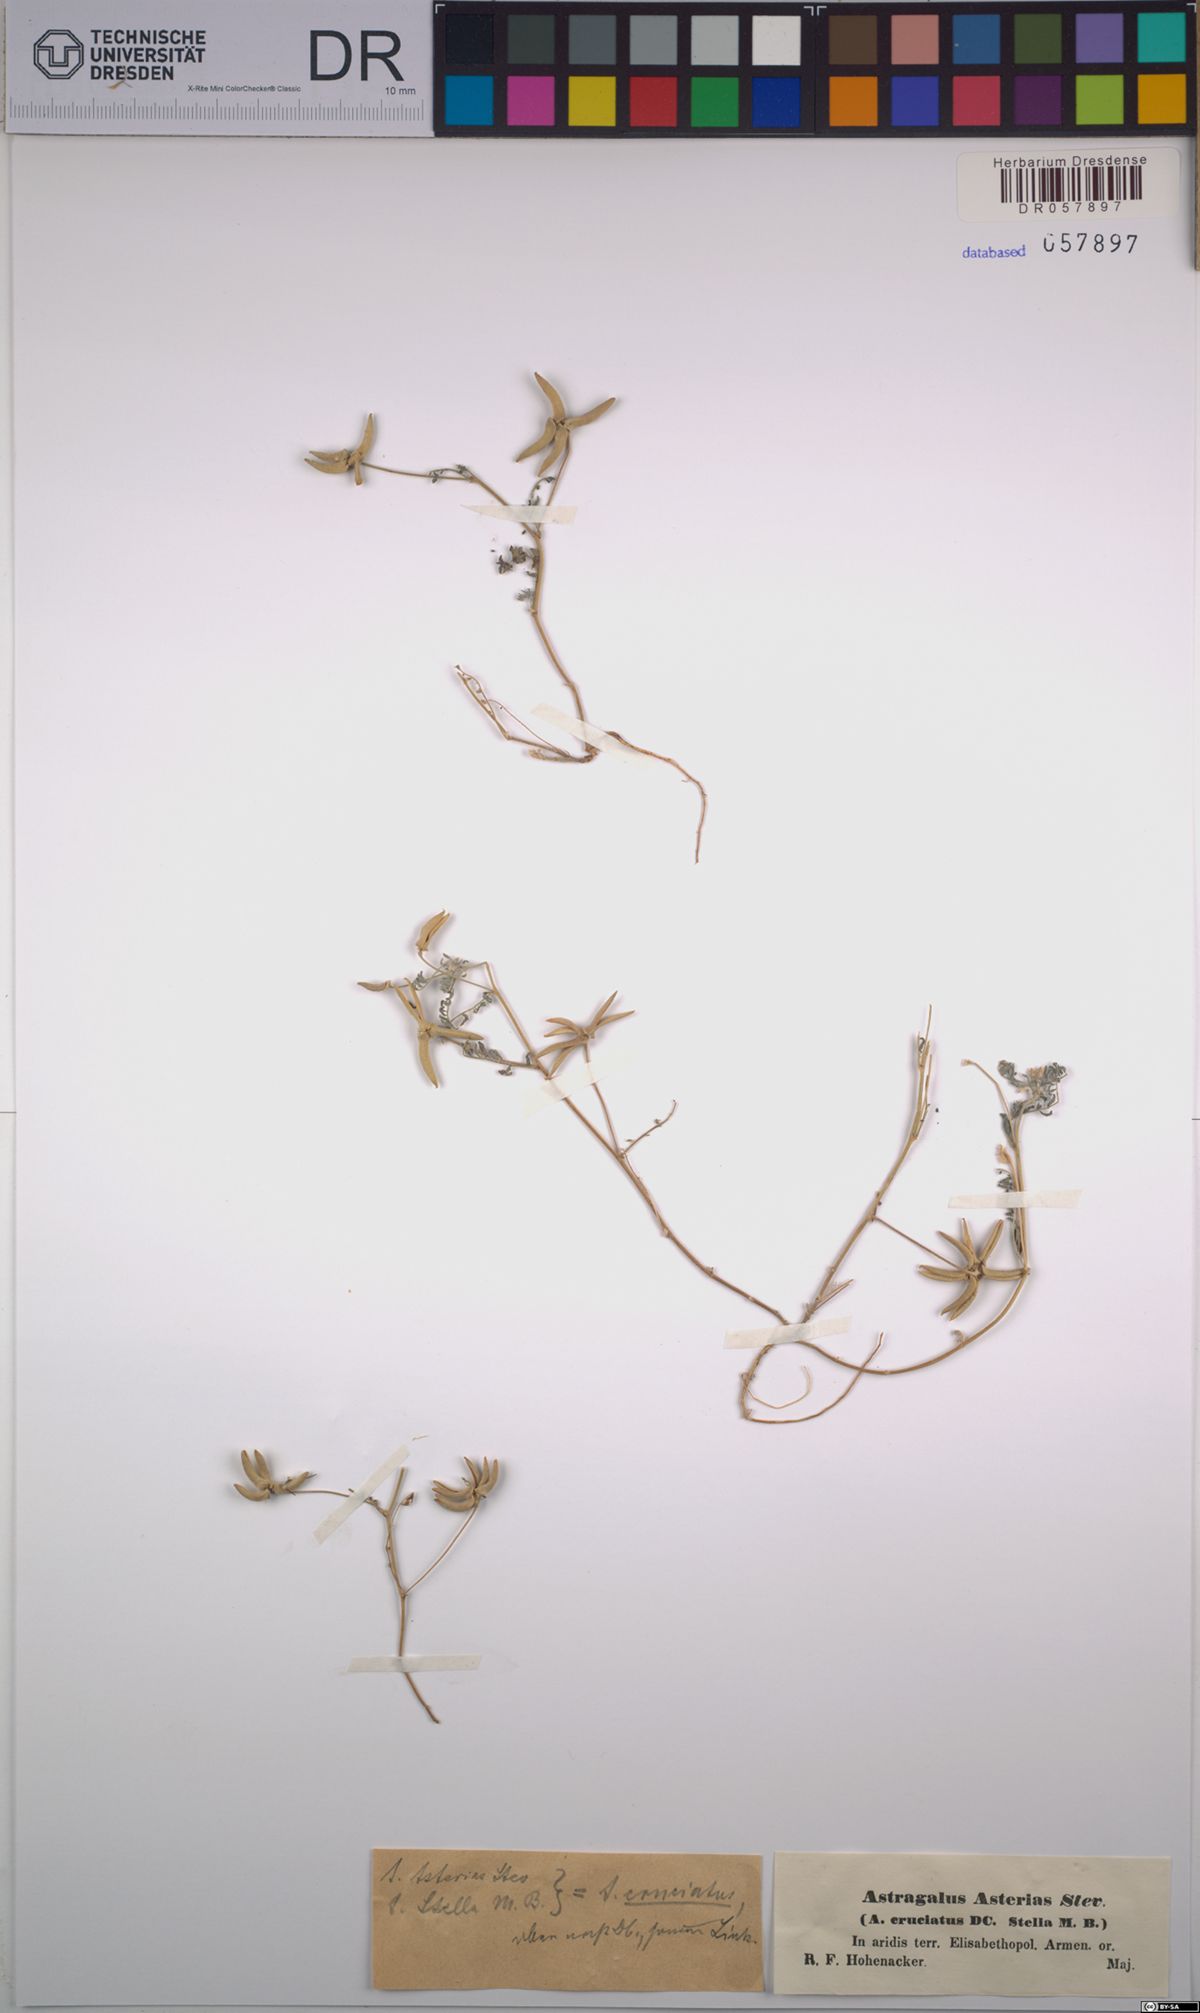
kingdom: Plantae
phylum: Tracheophyta
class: Magnoliopsida
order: Fabales
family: Fabaceae
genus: Astragalus
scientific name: Astragalus asterias
